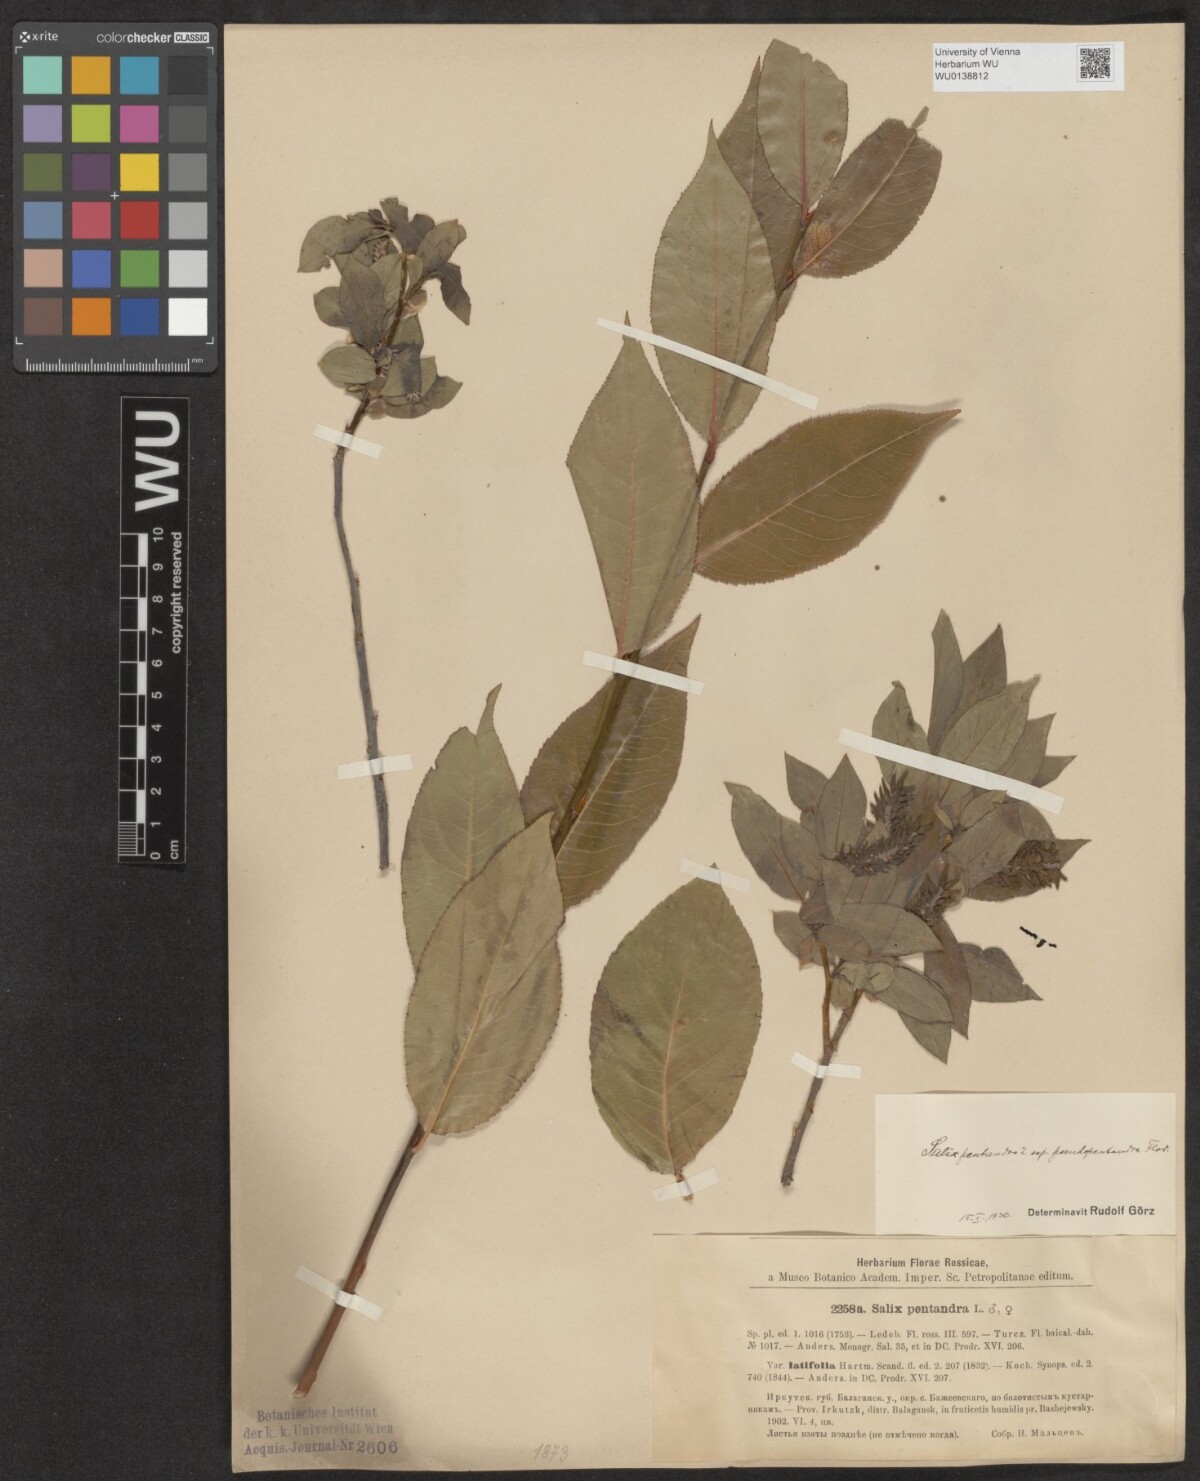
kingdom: Plantae
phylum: Tracheophyta
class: Magnoliopsida
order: Malpighiales
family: Salicaceae
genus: Salix
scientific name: Salix pentandra
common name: Bay willow
